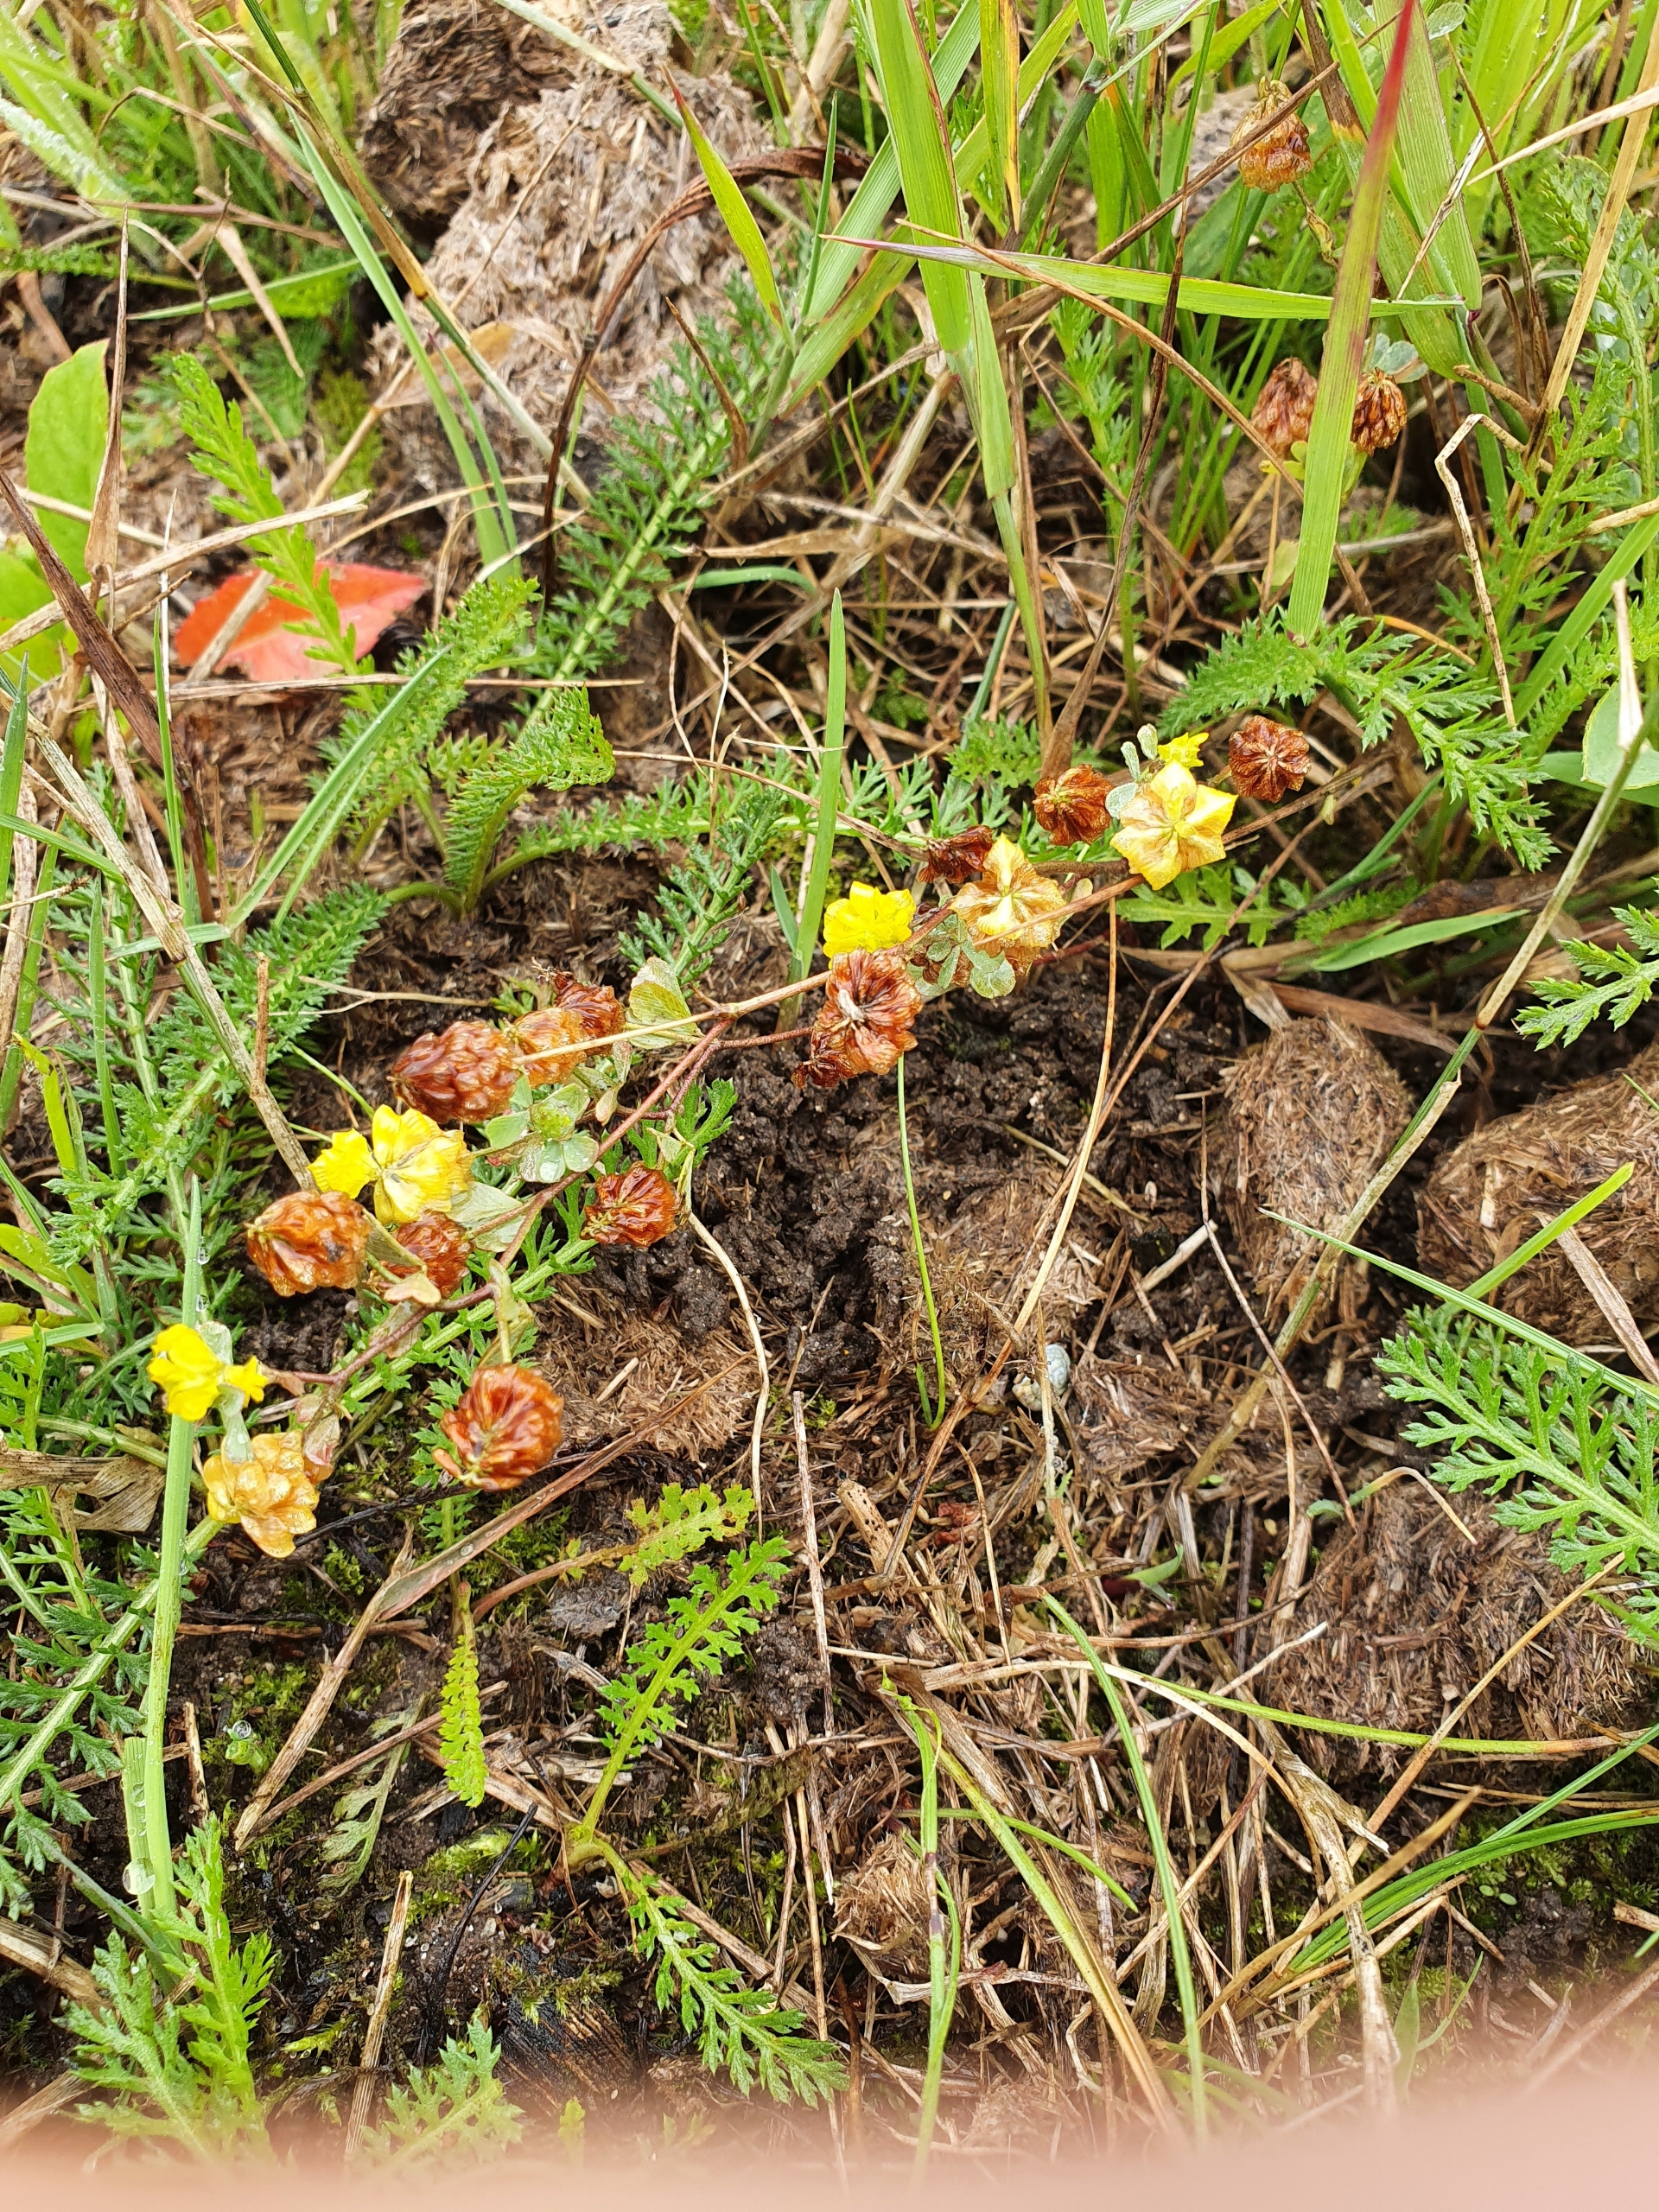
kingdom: Plantae
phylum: Tracheophyta
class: Magnoliopsida
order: Fabales
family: Fabaceae
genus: Trifolium
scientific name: Trifolium campestre
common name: Gul kløver
